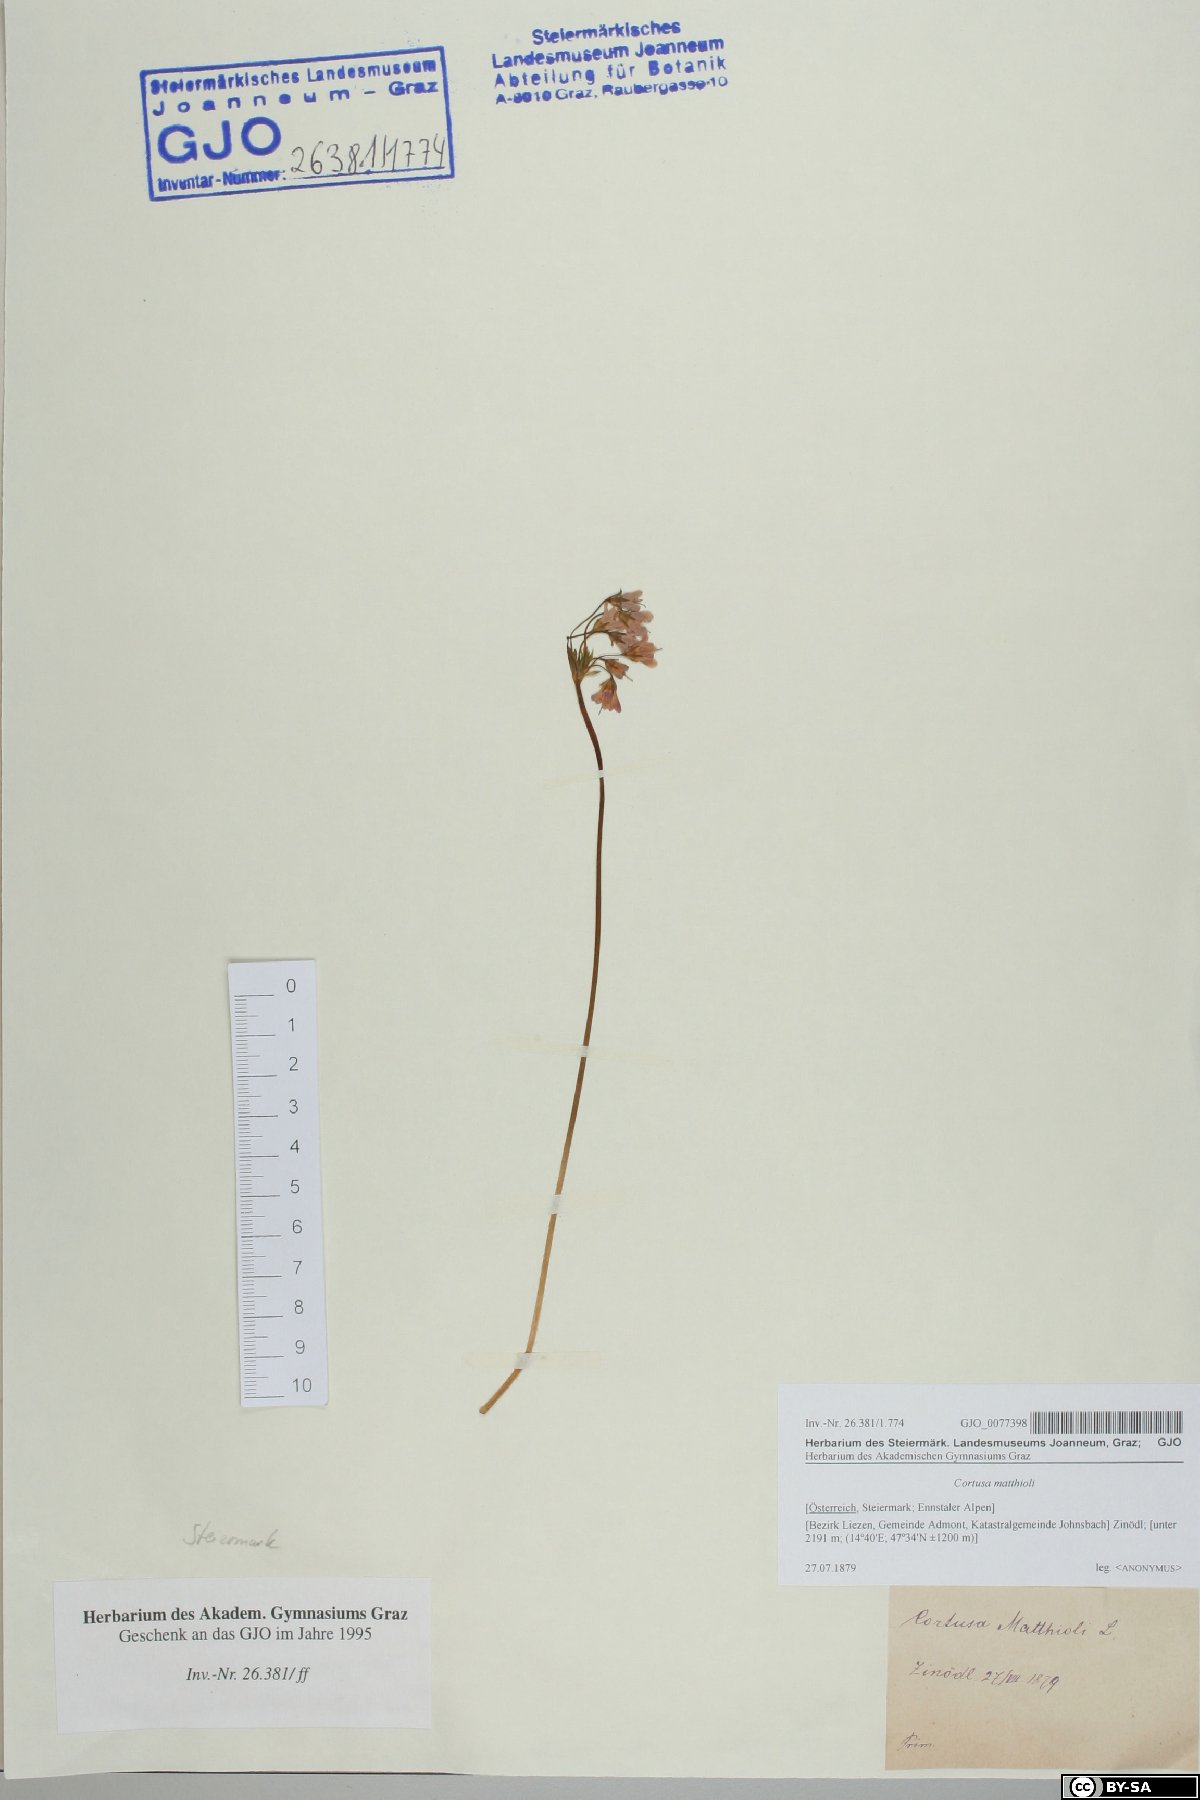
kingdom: Plantae
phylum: Tracheophyta
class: Magnoliopsida
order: Ericales
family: Primulaceae
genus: Primula
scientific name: Primula matthioli
